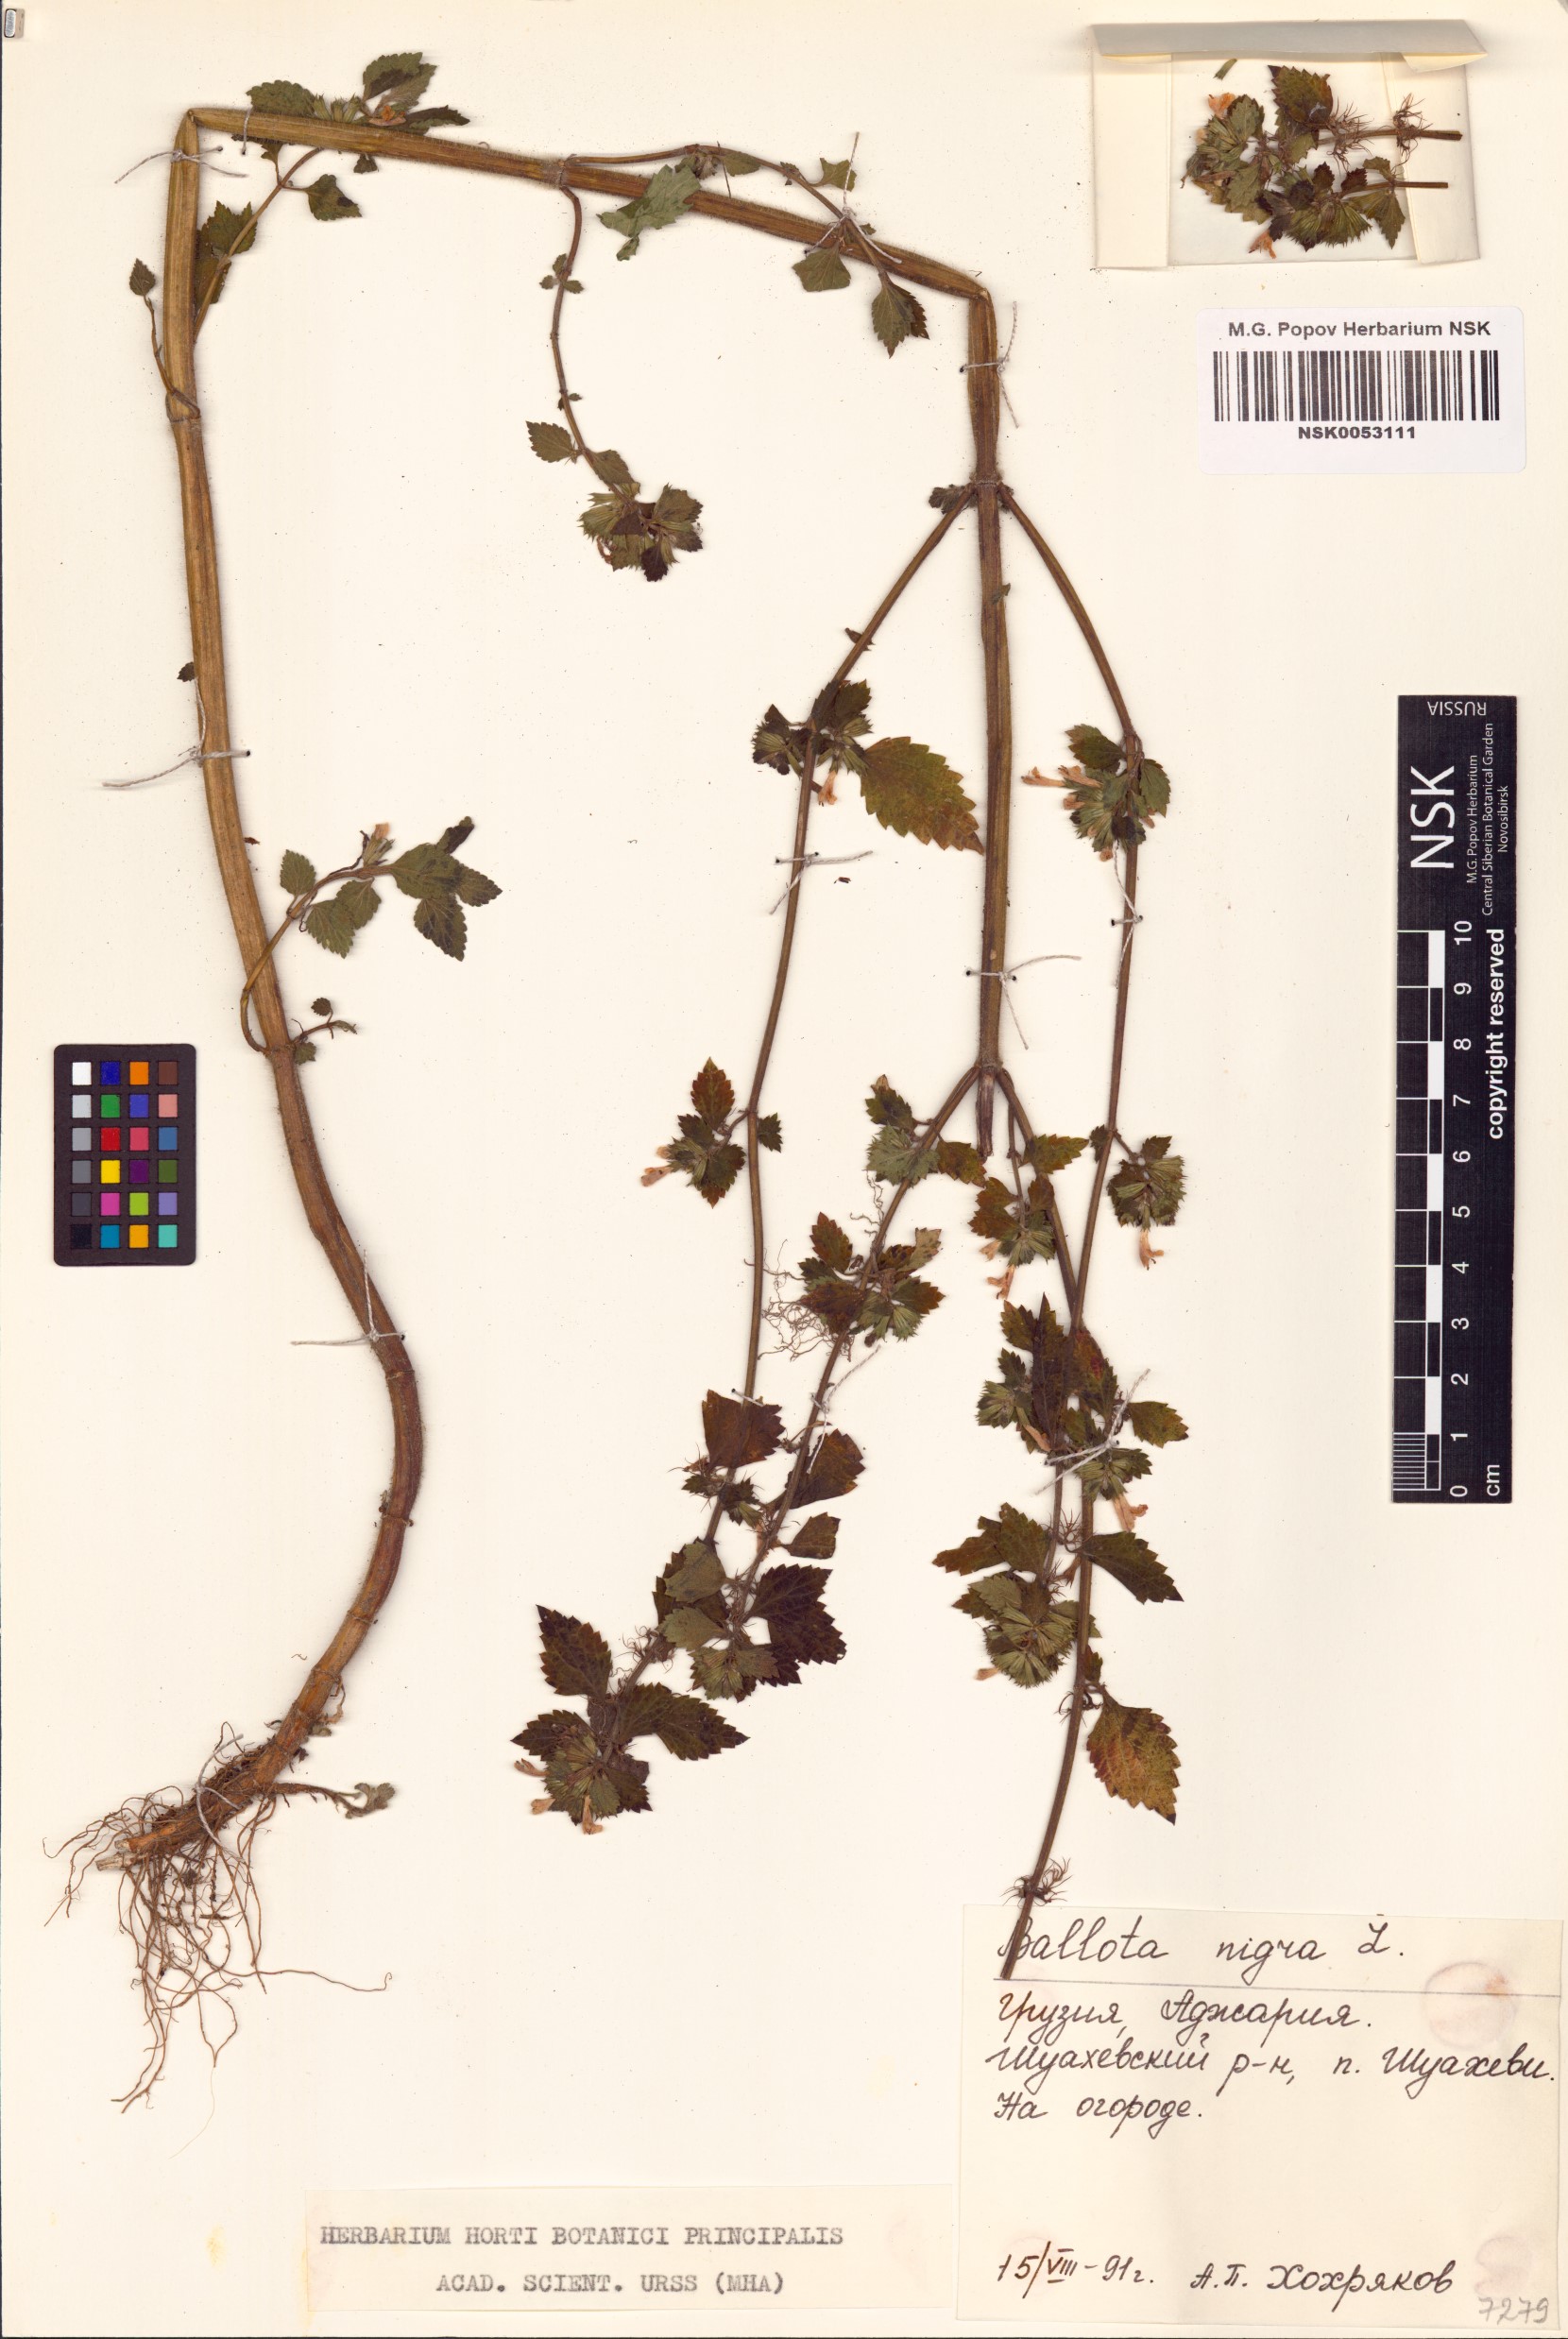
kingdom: Plantae
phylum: Tracheophyta
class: Magnoliopsida
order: Lamiales
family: Lamiaceae
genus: Ballota
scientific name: Ballota nigra
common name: Black horehound
